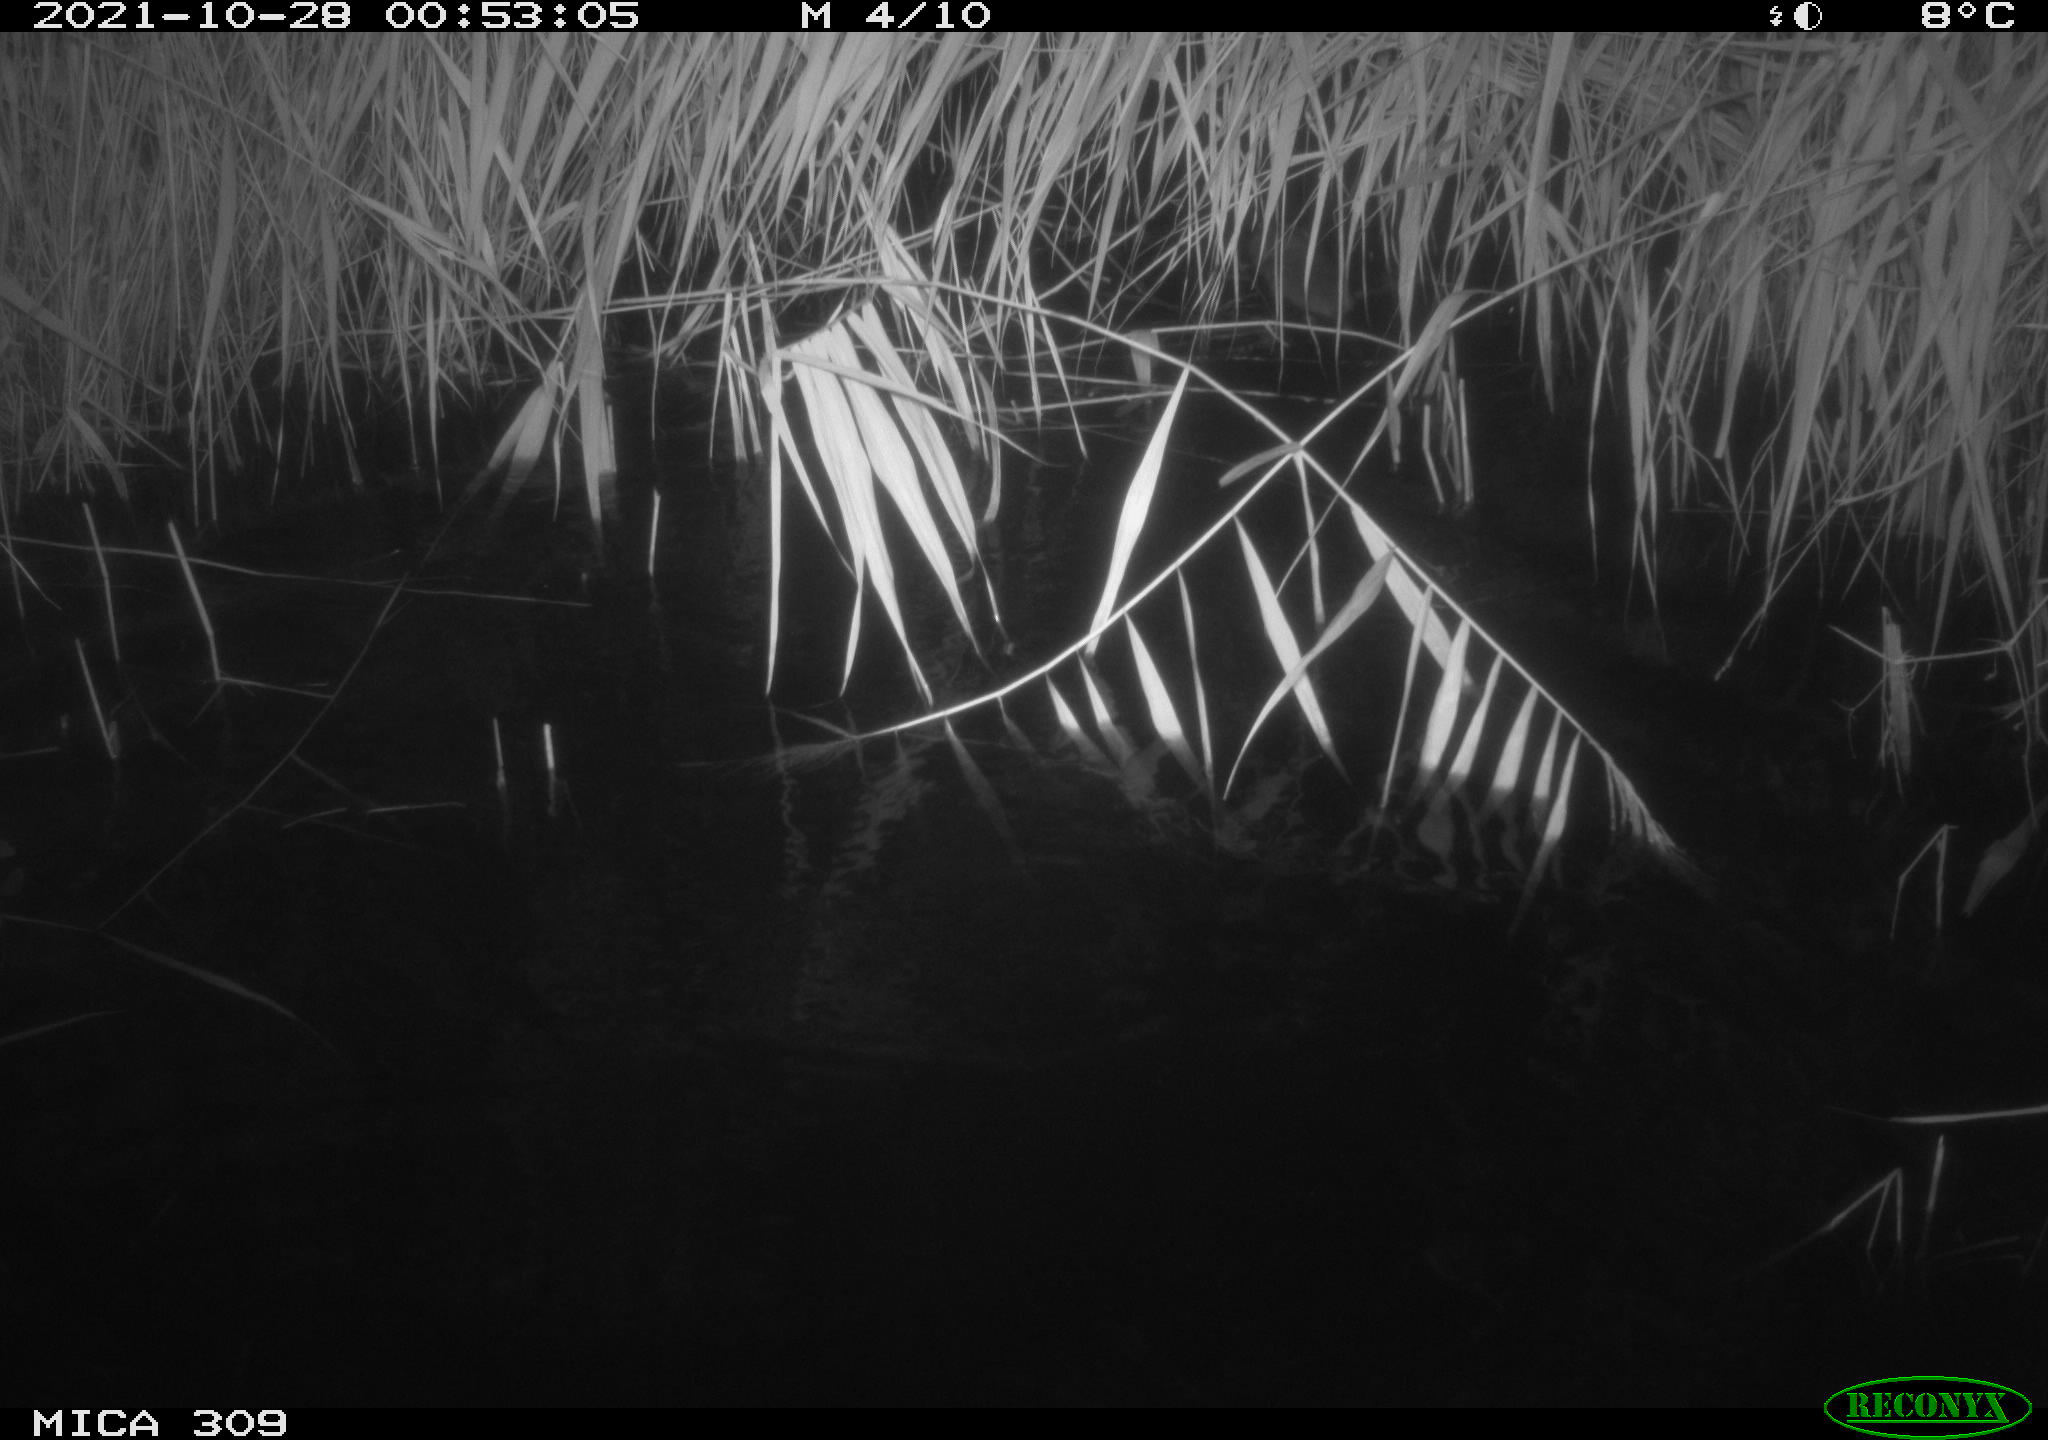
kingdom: Animalia
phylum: Chordata
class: Mammalia
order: Rodentia
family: Cricetidae
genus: Ondatra
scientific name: Ondatra zibethicus
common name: Muskrat
